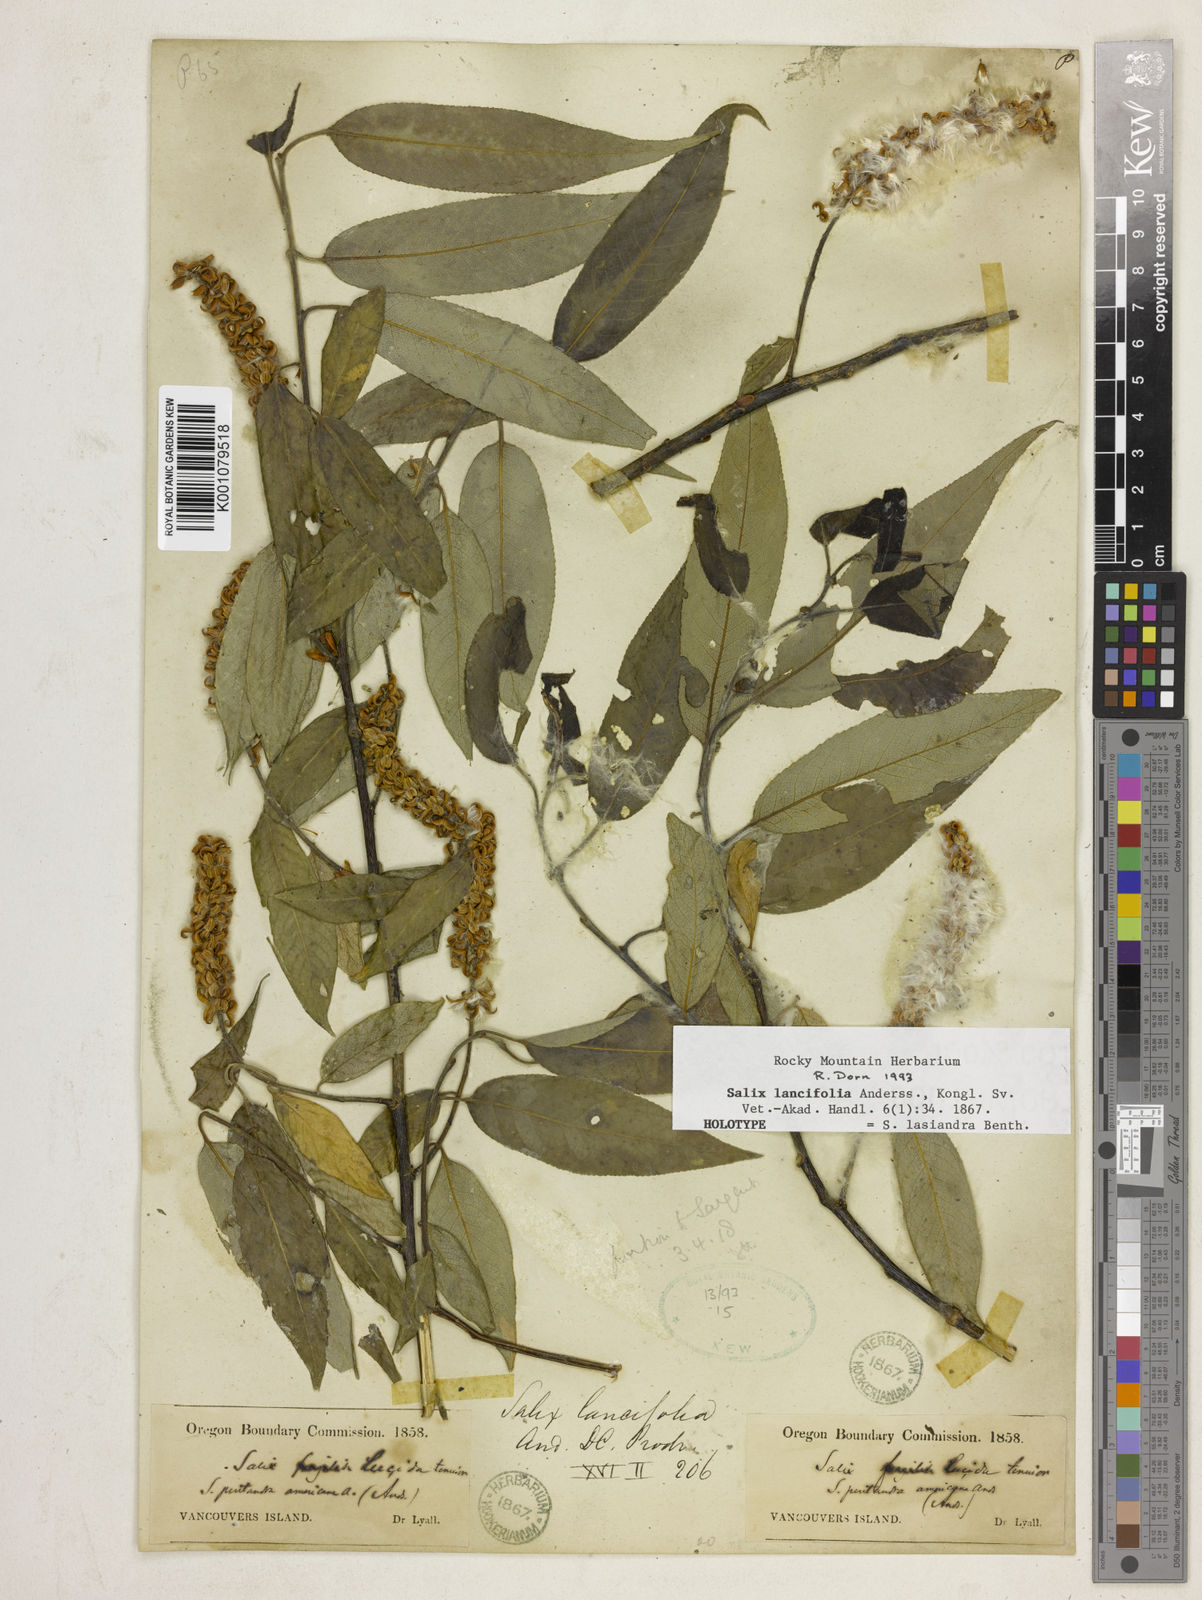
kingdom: Plantae
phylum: Tracheophyta
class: Magnoliopsida
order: Malpighiales
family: Salicaceae
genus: Salix
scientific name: Salix lucida
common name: Shining willow
